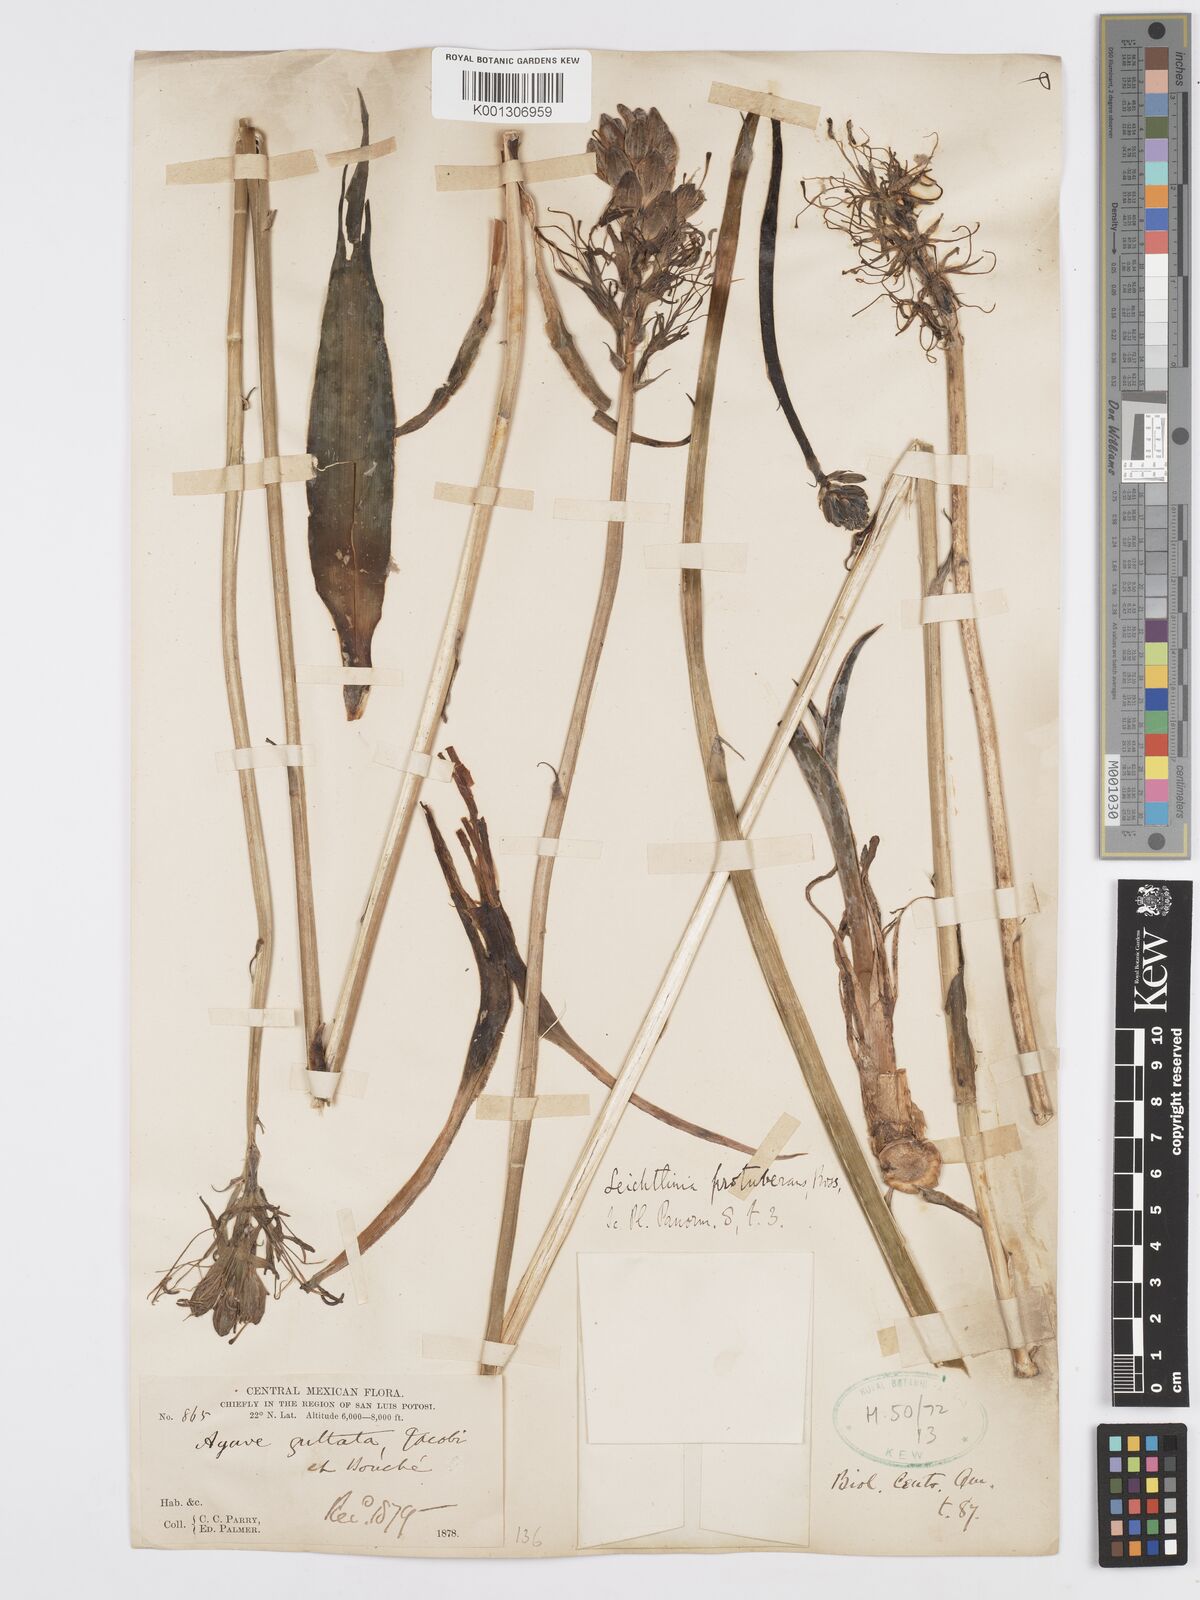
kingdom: Plantae
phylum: Tracheophyta
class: Liliopsida
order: Asparagales
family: Asparagaceae
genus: Agave
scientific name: Agave guttata
